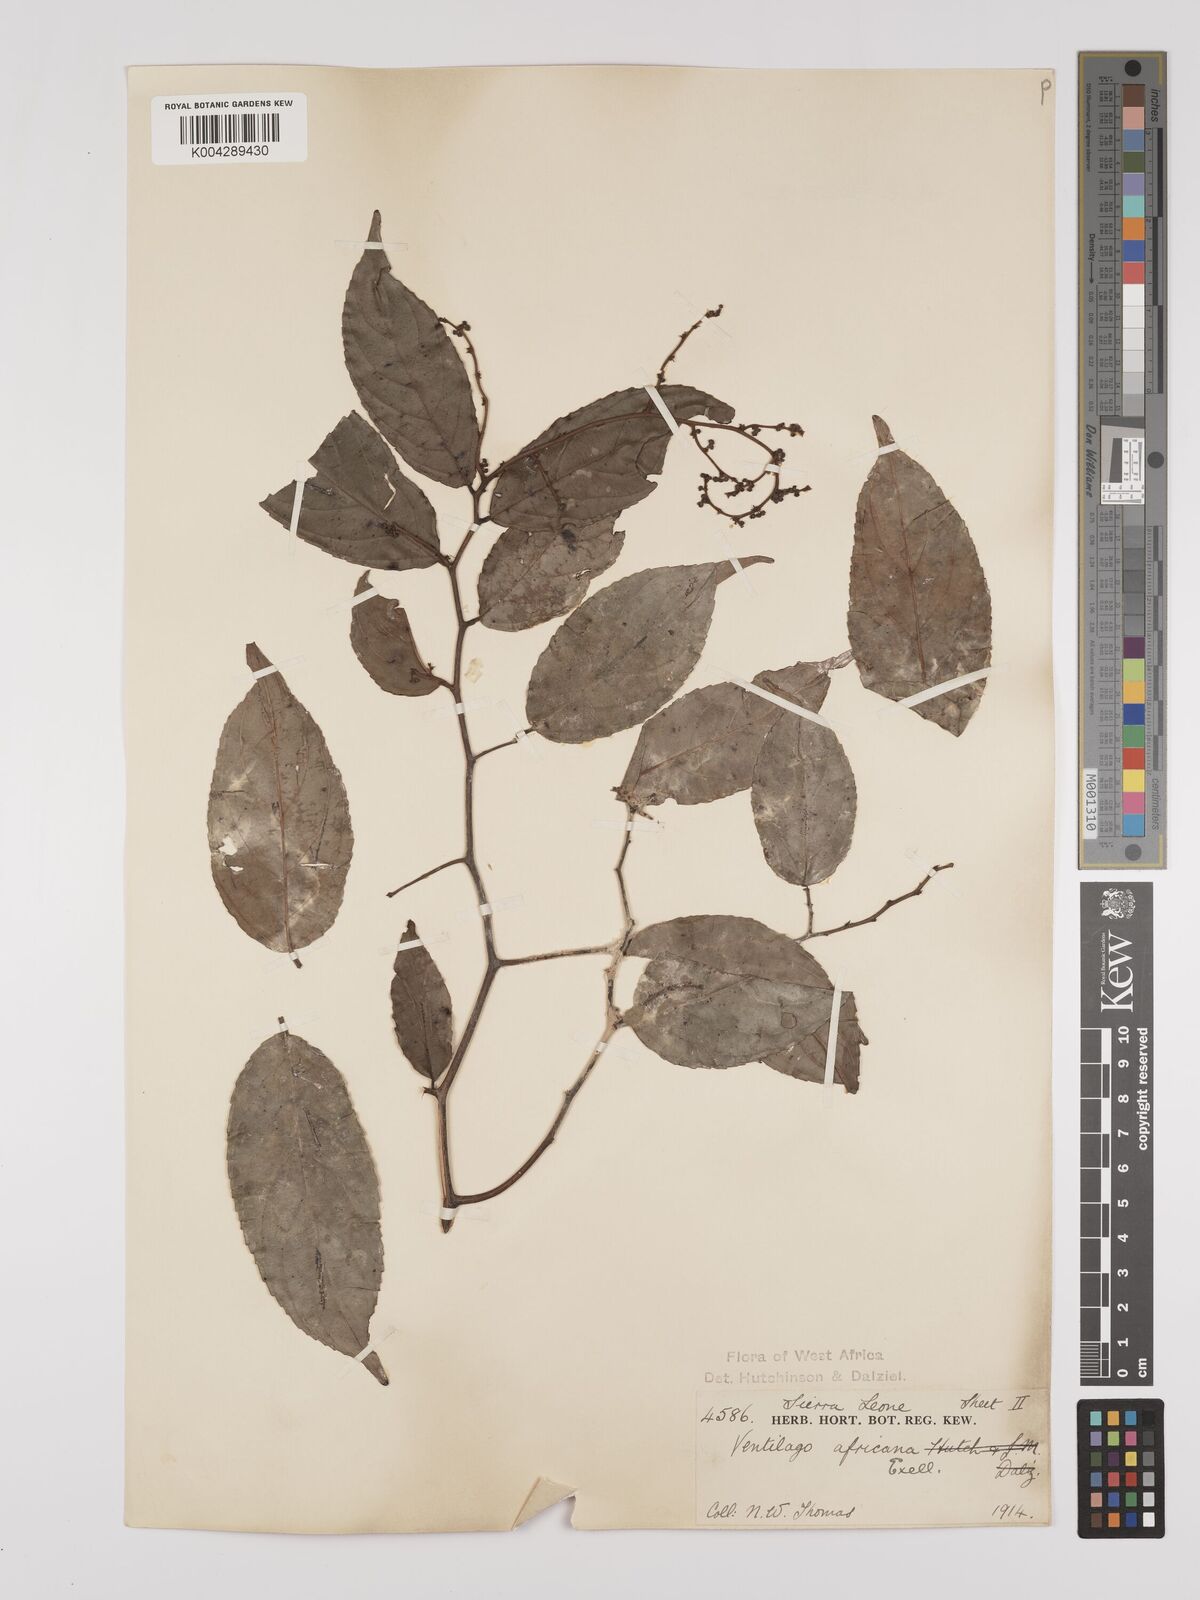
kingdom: Plantae
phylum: Tracheophyta
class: Magnoliopsida
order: Rosales
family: Rhamnaceae
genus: Ventilago
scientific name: Ventilago africana
